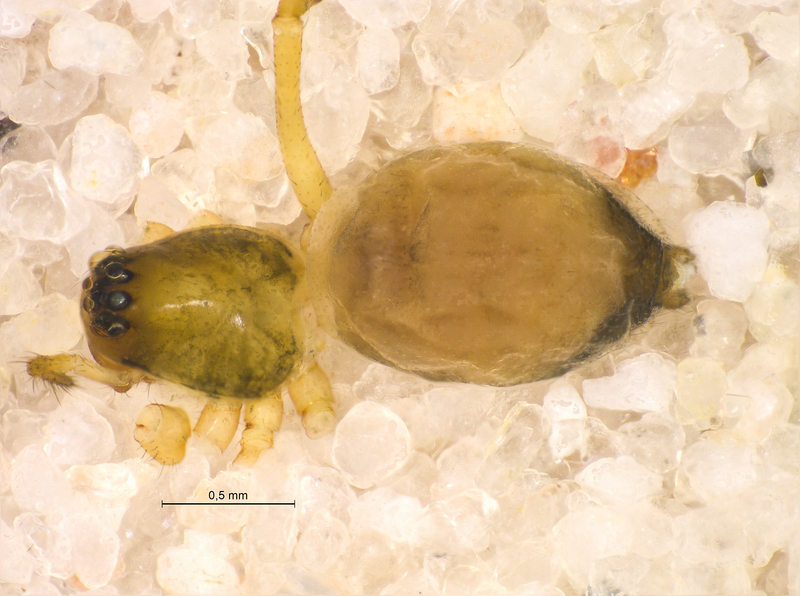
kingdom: Animalia
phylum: Arthropoda
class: Arachnida
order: Araneae
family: Linyphiidae
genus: Bathyphantes
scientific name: Bathyphantes gracilis
